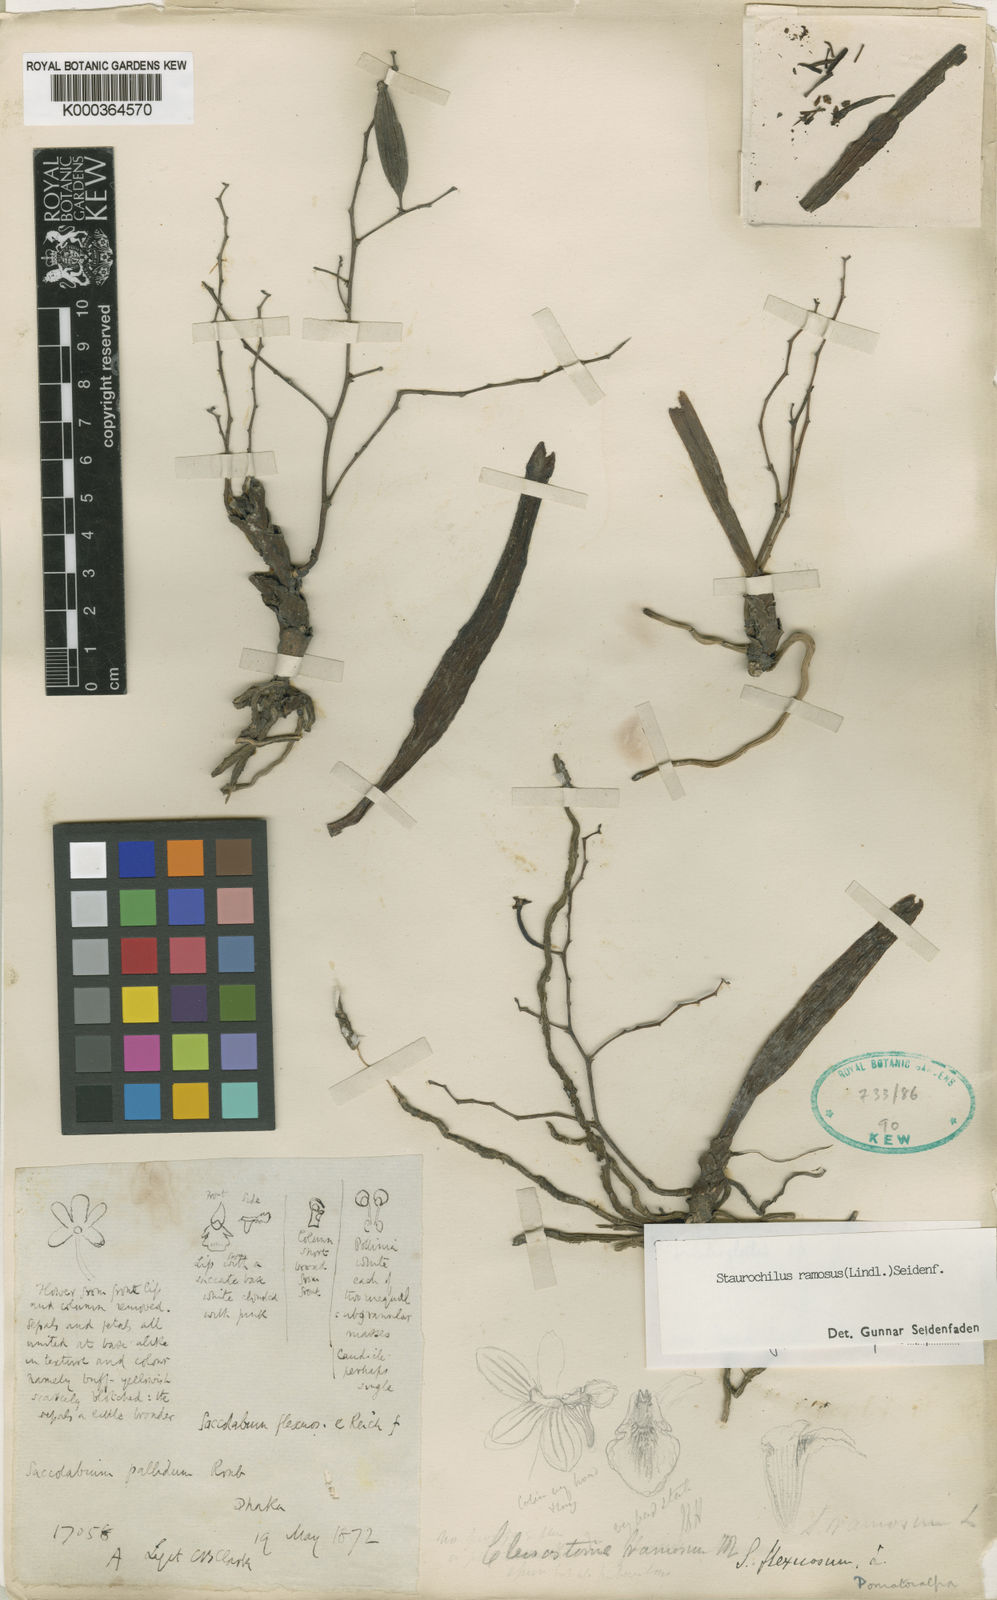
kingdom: Plantae
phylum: Tracheophyta
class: Liliopsida
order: Asparagales
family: Orchidaceae
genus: Trichoglottis
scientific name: Trichoglottis ramosa
